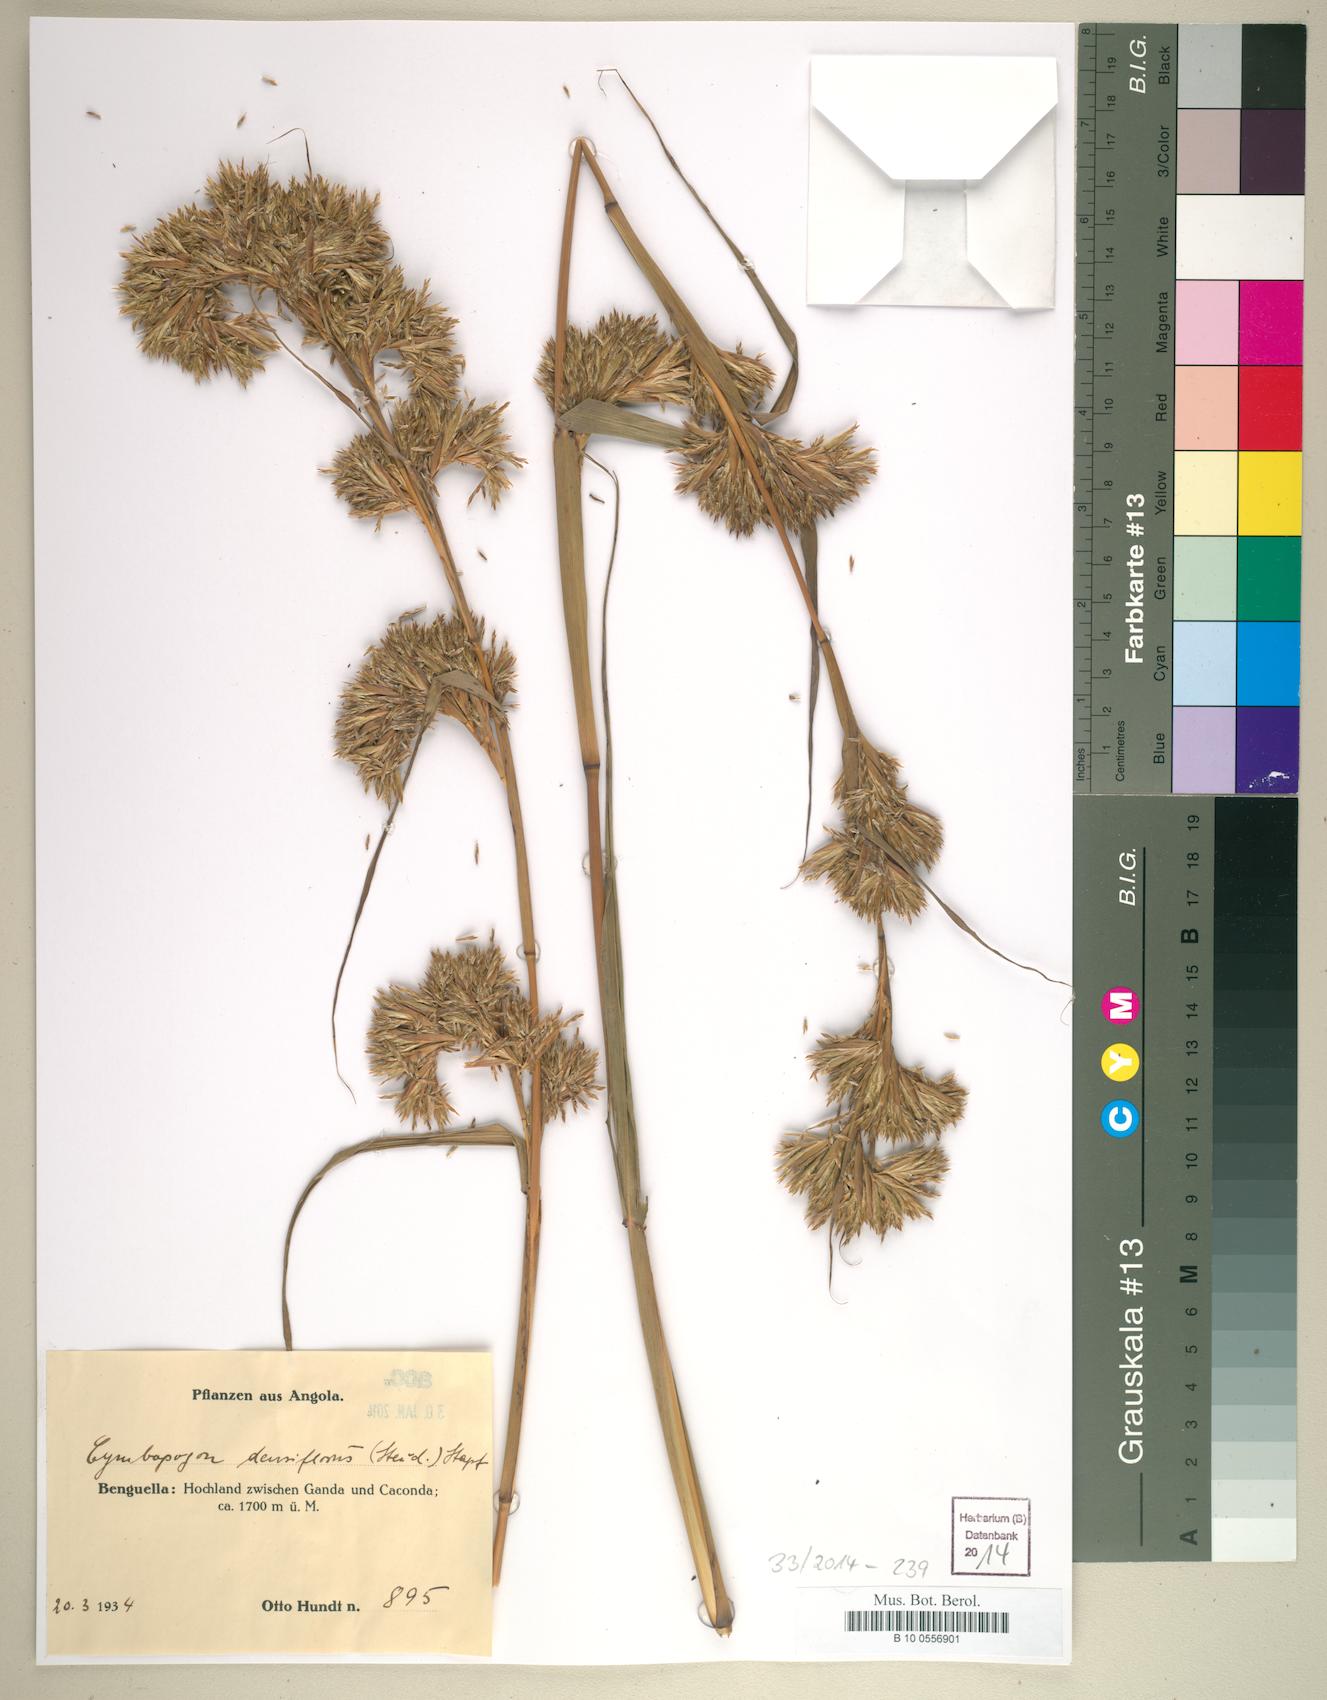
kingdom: Plantae
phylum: Tracheophyta
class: Liliopsida
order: Poales
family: Poaceae
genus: Cymbopogon
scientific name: Cymbopogon densiflorus
